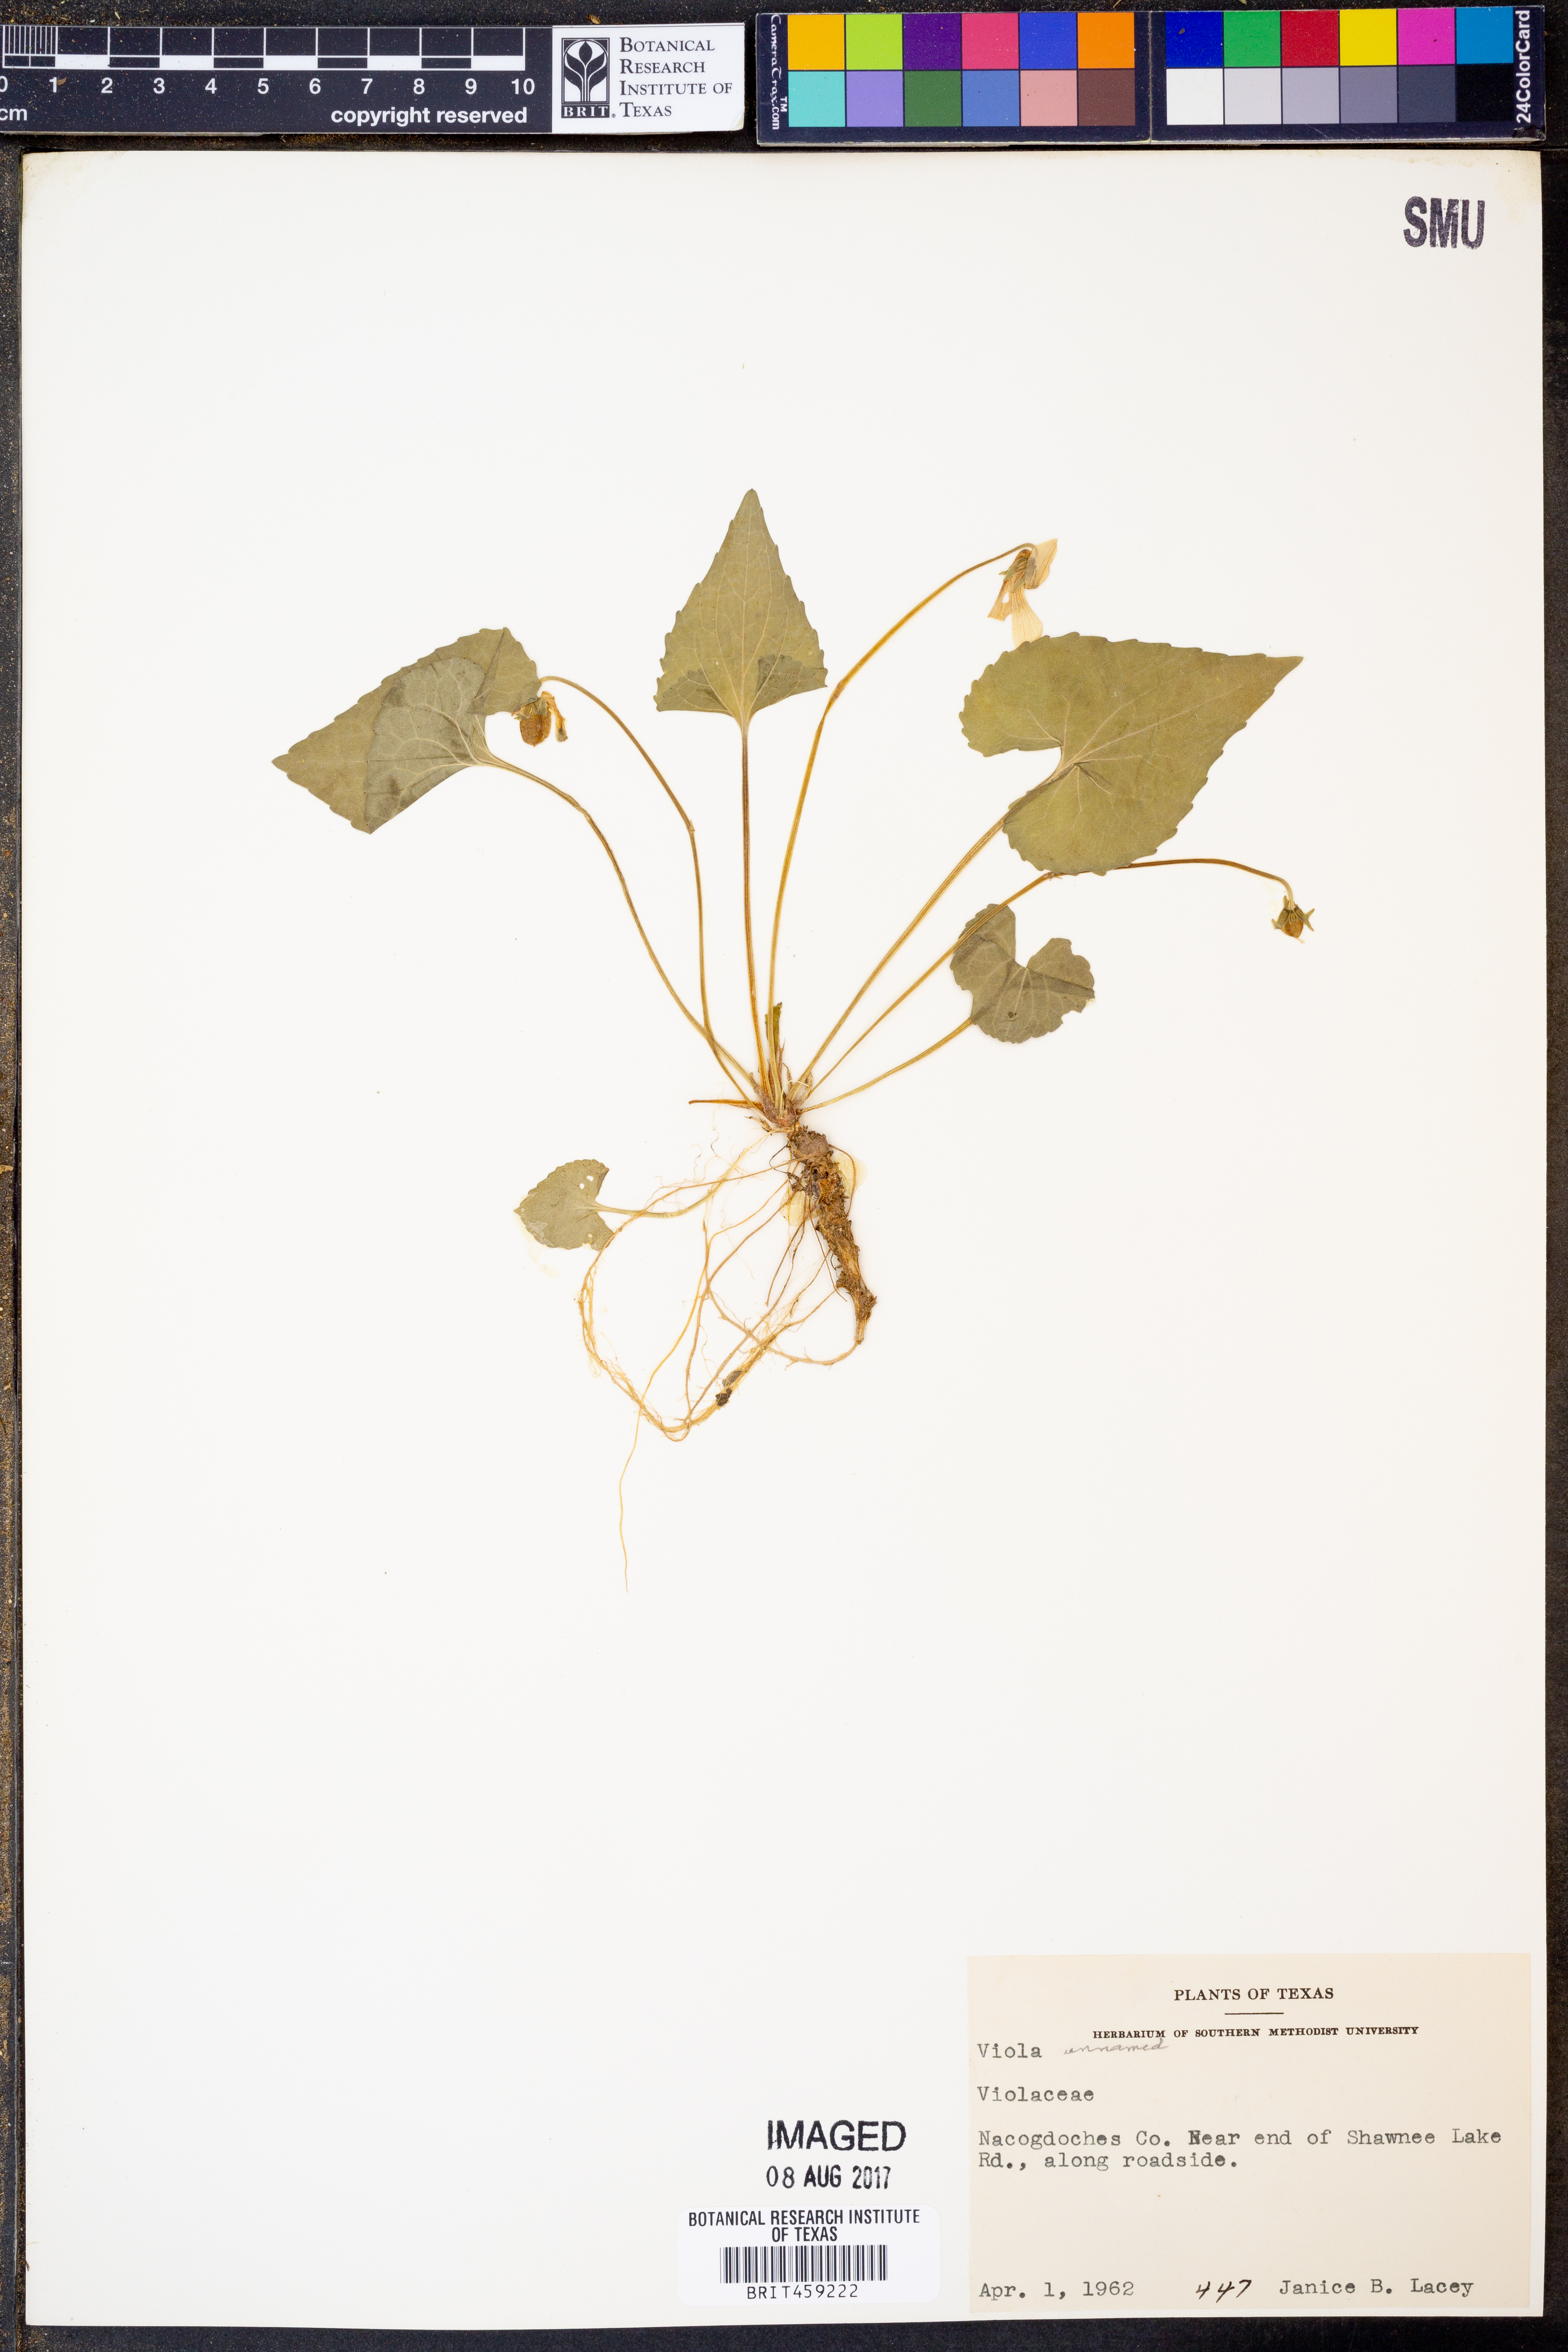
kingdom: Plantae
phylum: Tracheophyta
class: Magnoliopsida
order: Malpighiales
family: Violaceae
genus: Viola
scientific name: Viola
